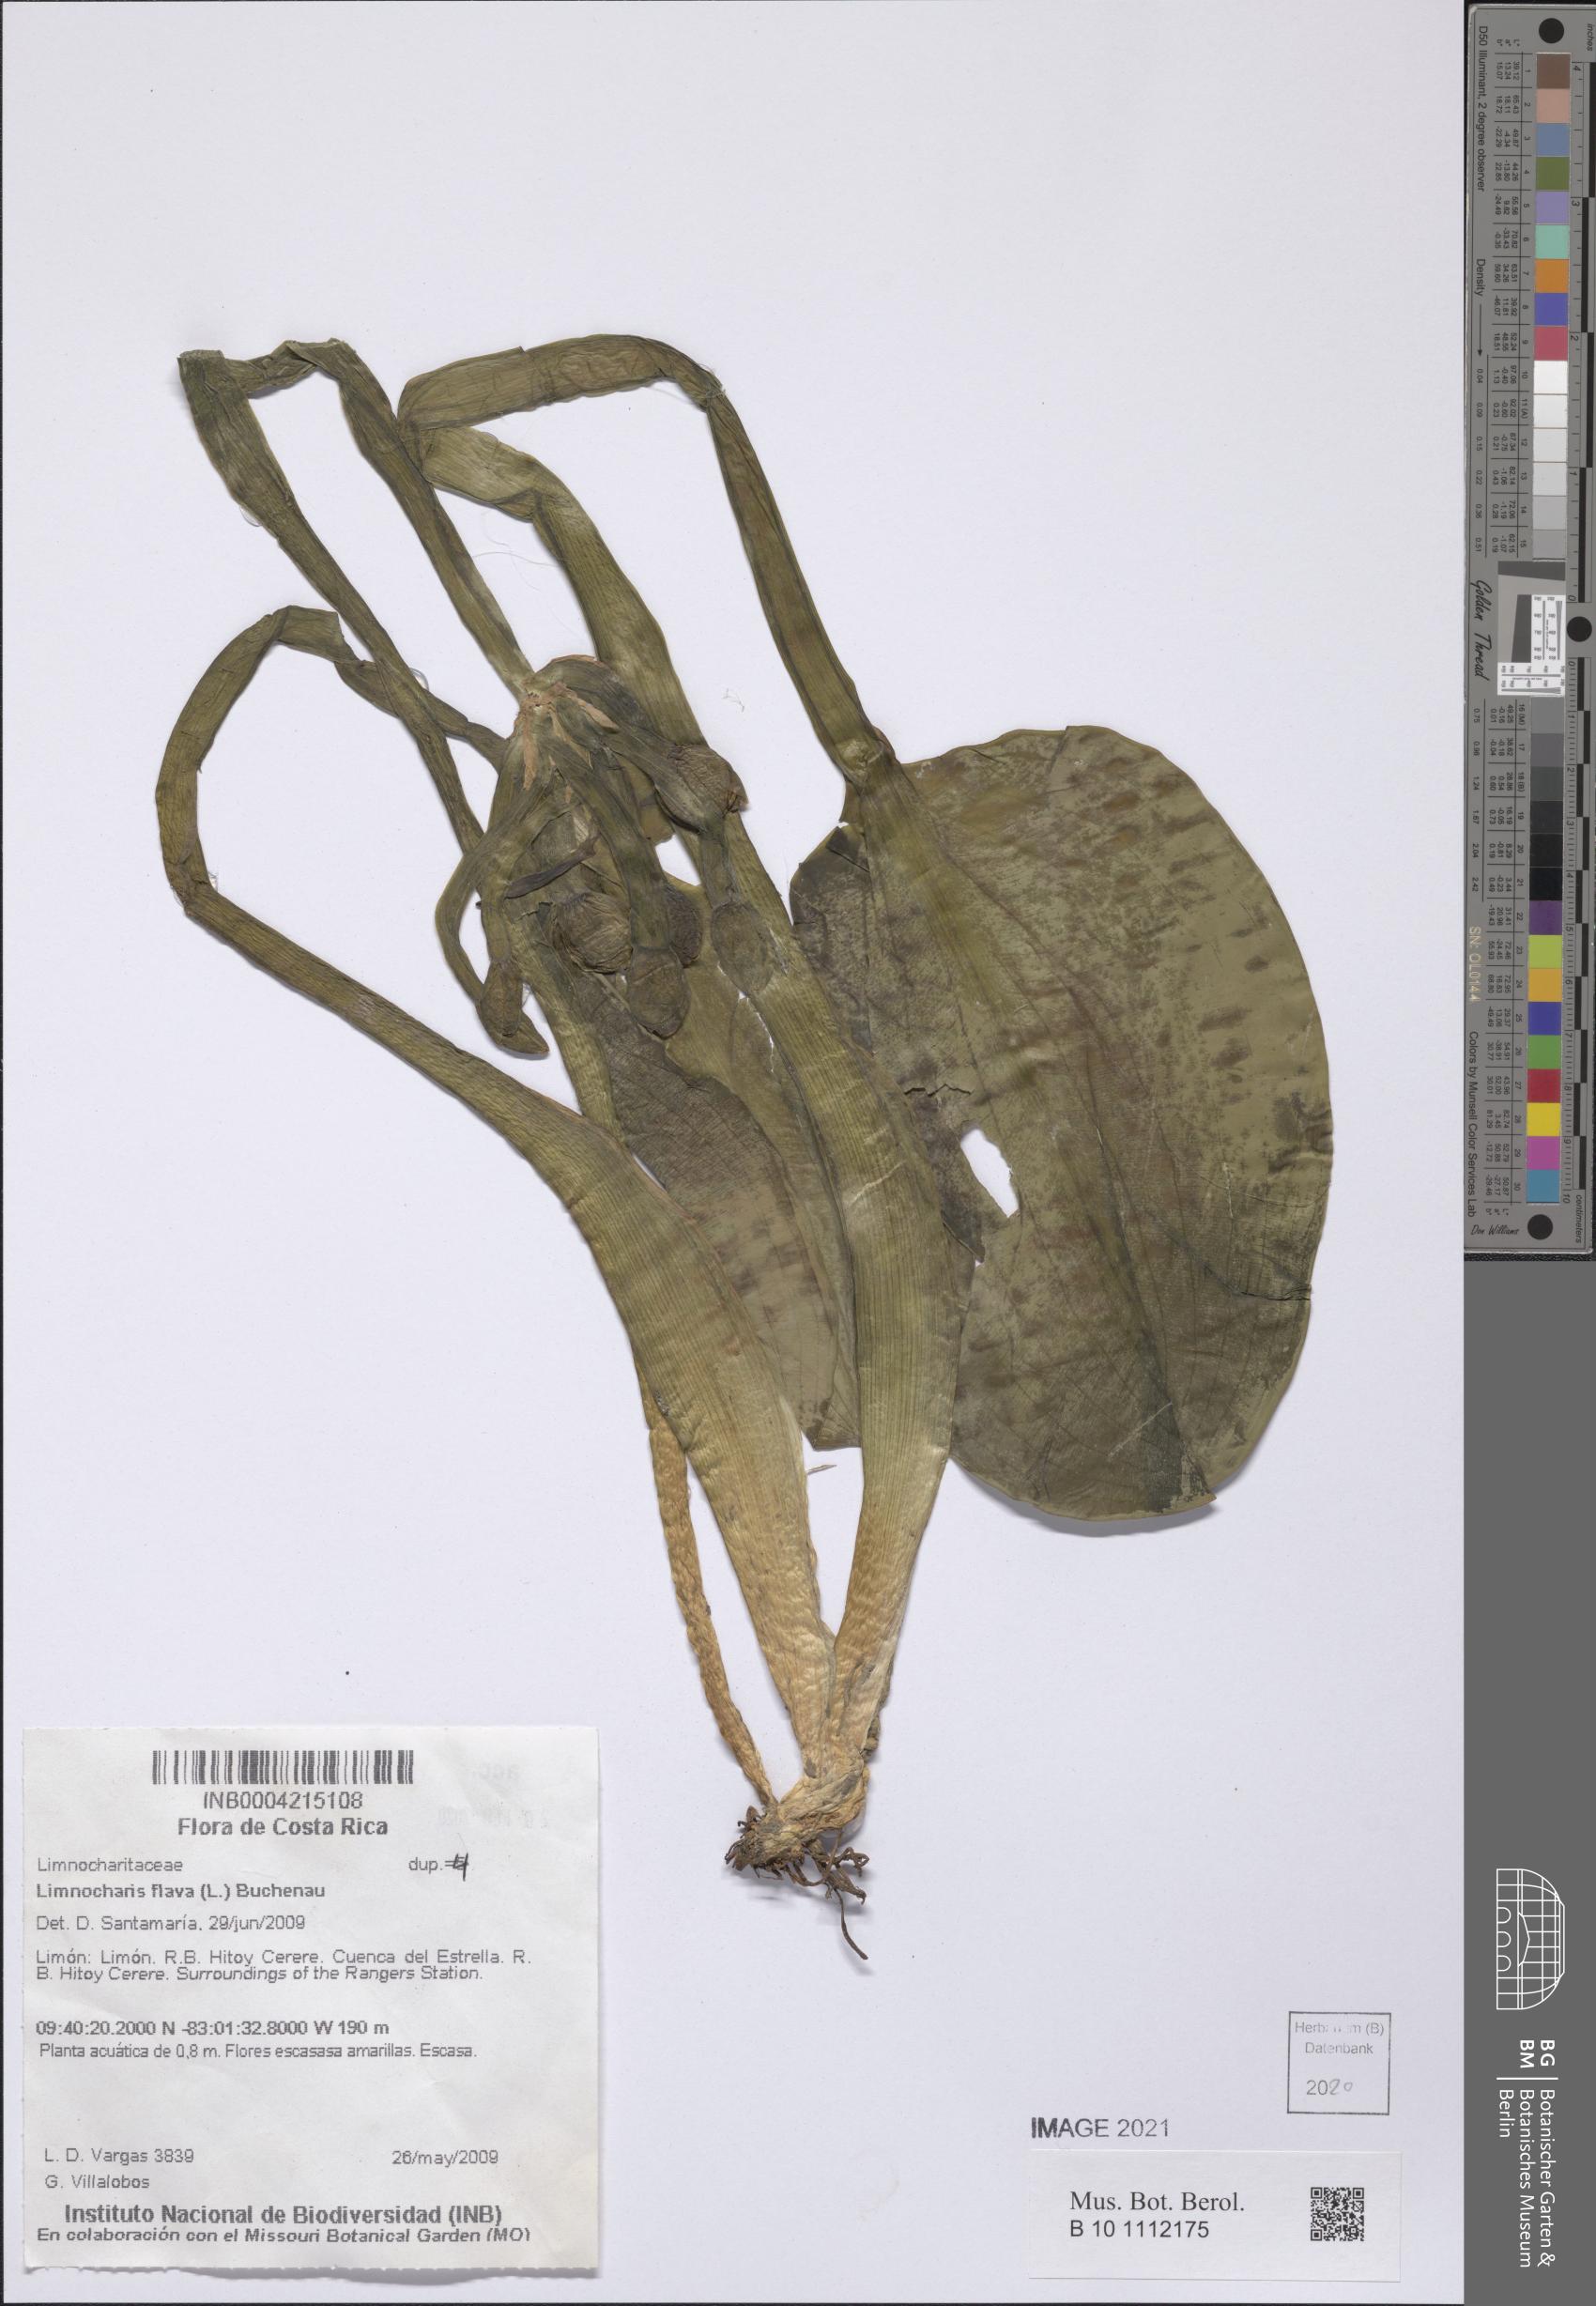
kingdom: Plantae
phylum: Tracheophyta
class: Liliopsida
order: Alismatales
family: Alismataceae
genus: Limnocharis
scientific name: Limnocharis flava
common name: Sawah-flower-rush
